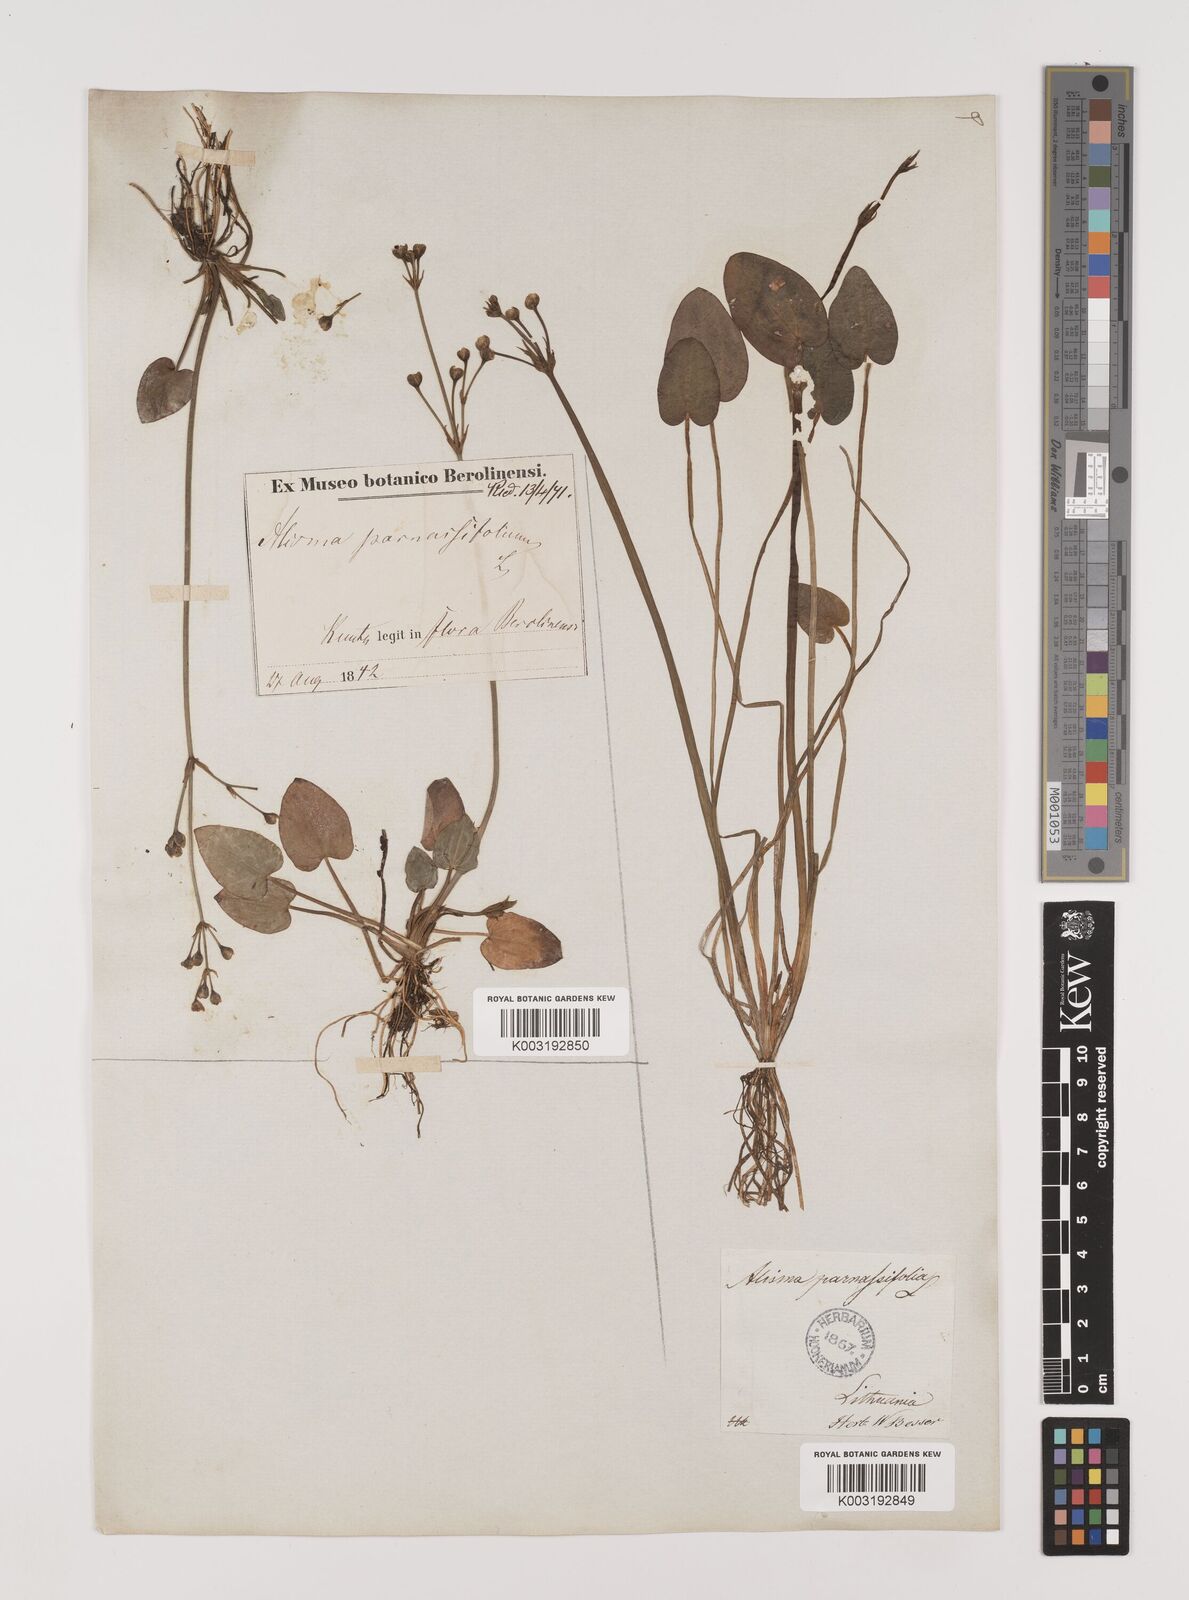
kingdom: Plantae
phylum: Tracheophyta
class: Liliopsida
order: Alismatales
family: Alismataceae
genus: Caldesia
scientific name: Caldesia parnassifolia
